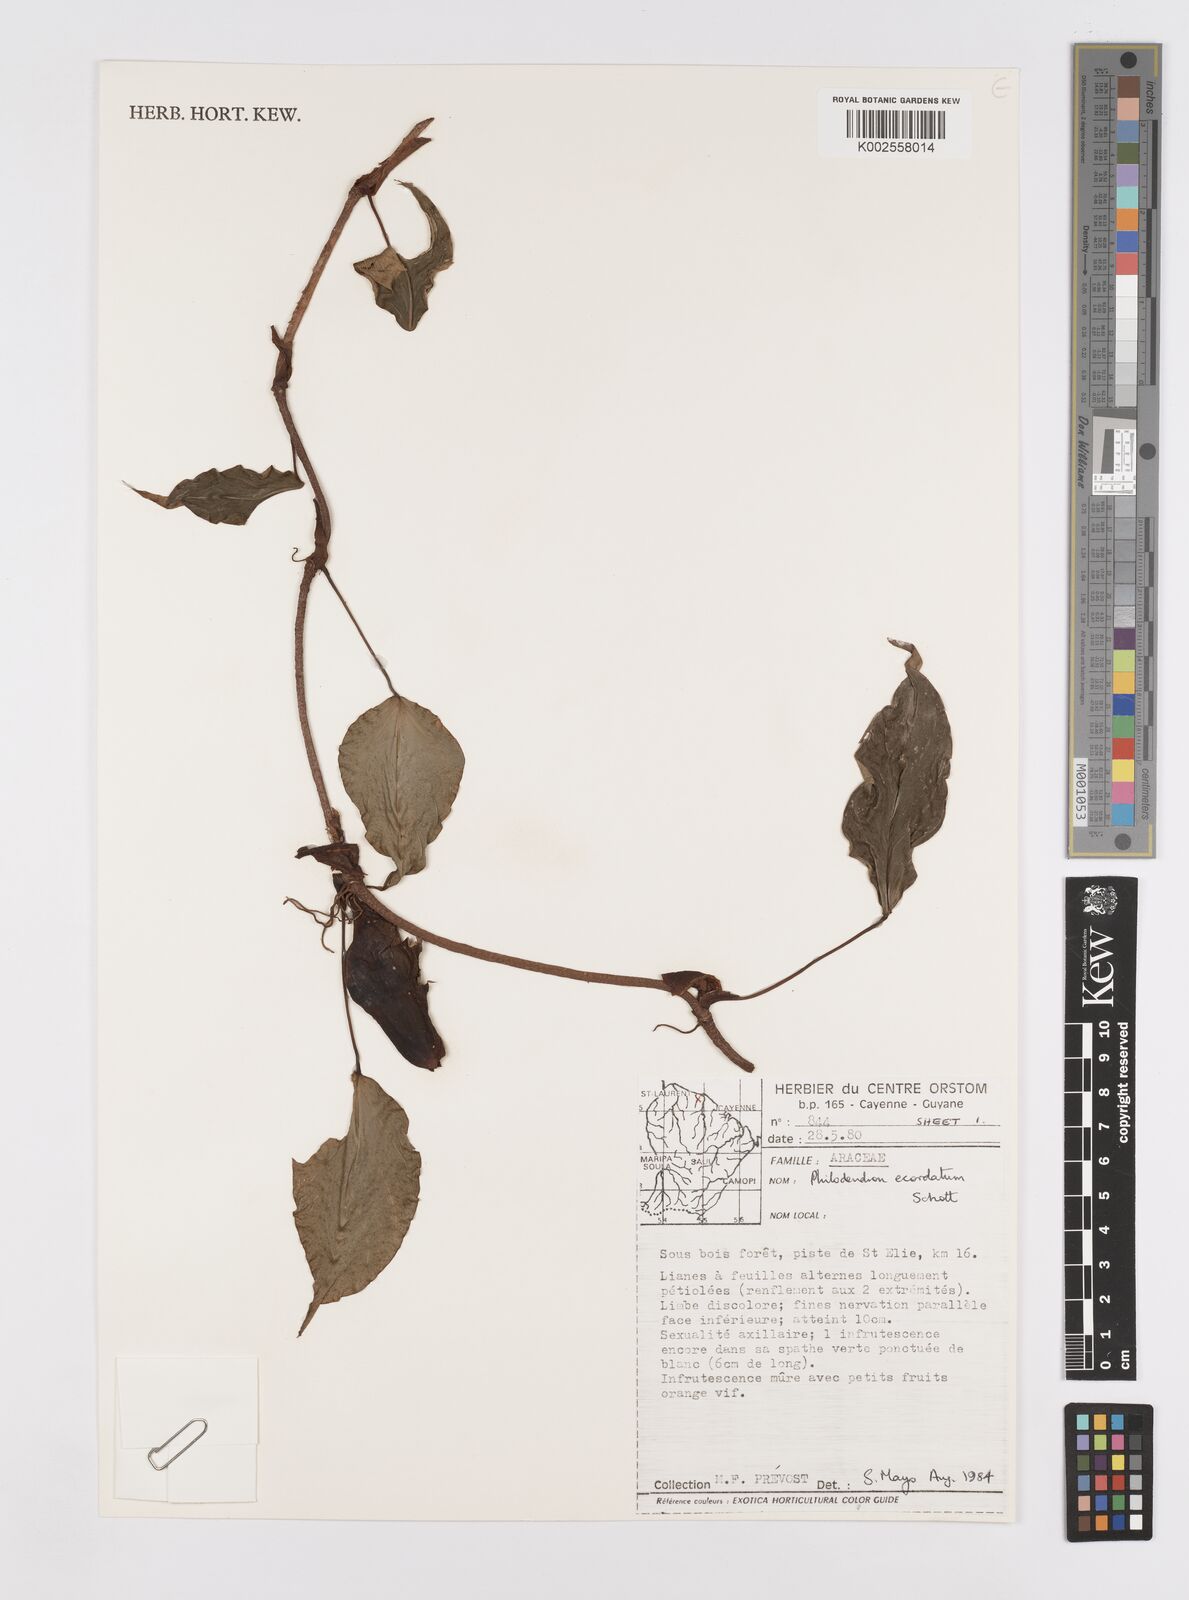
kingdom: Plantae
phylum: Tracheophyta
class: Liliopsida
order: Alismatales
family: Araceae
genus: Philodendron
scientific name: Philodendron ecordatum
